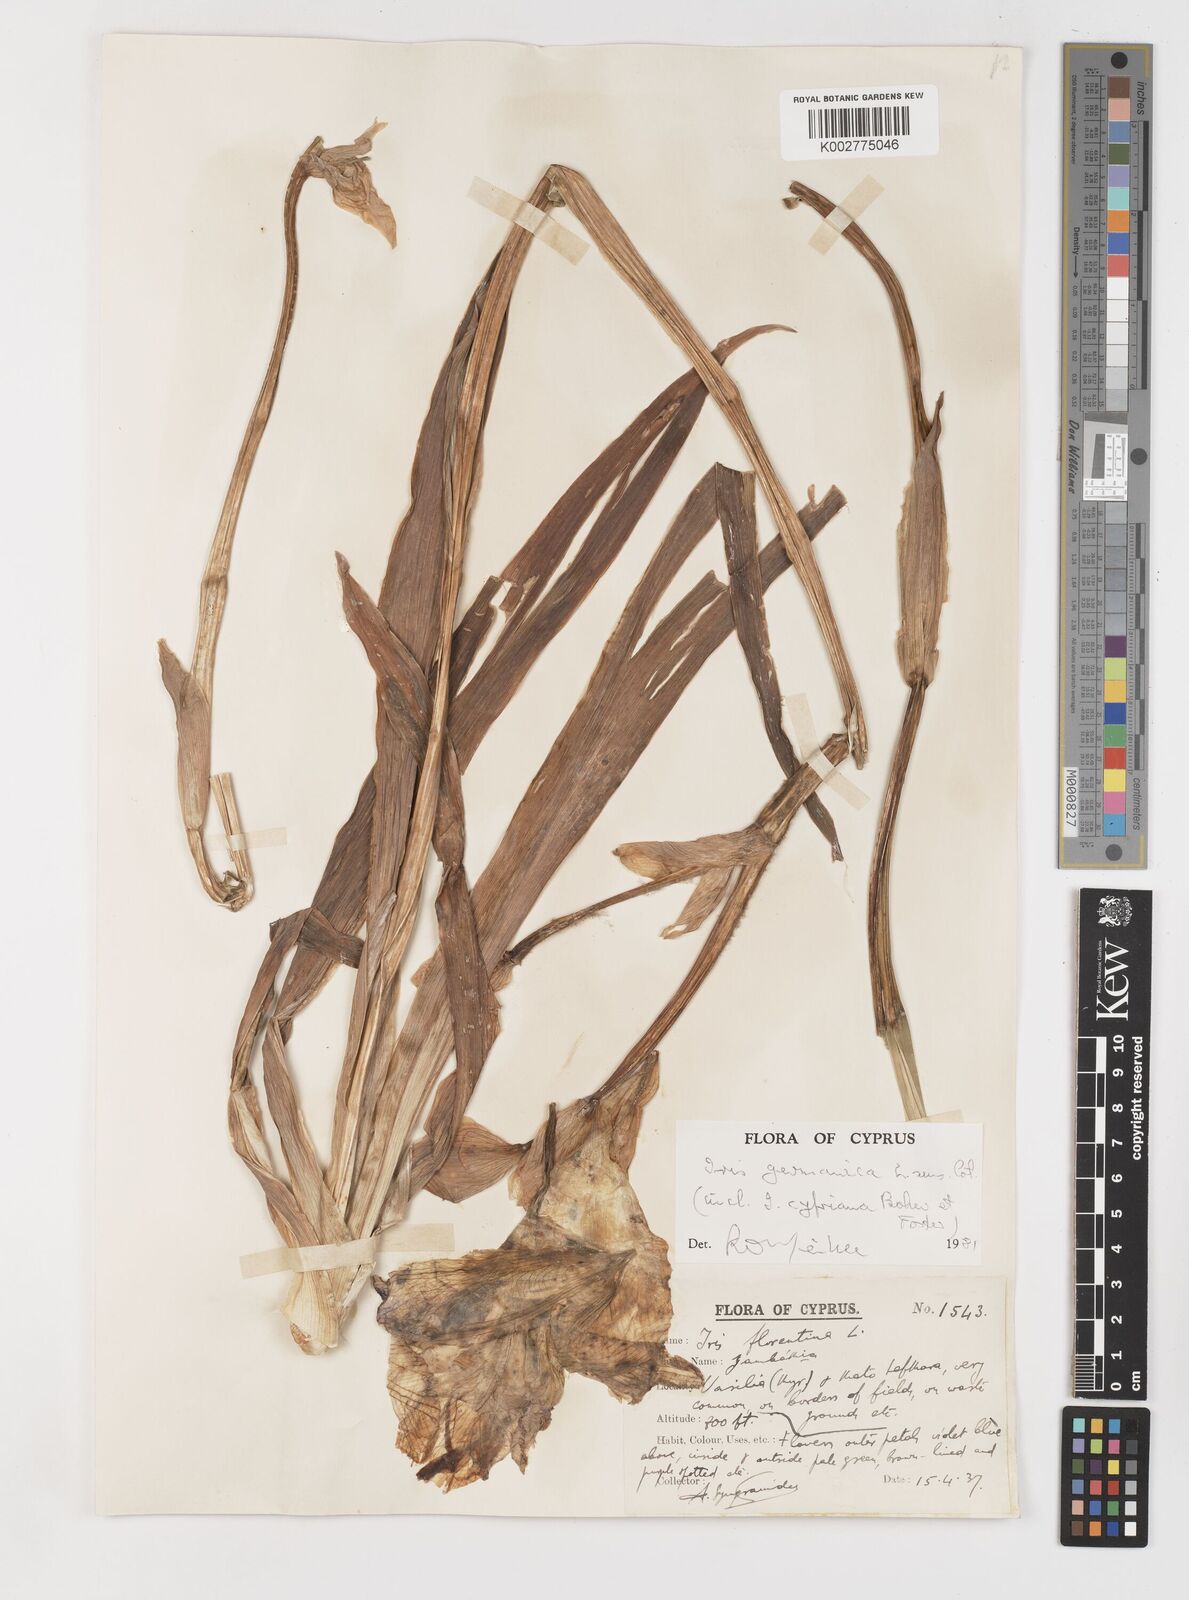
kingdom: Plantae
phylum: Tracheophyta
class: Liliopsida
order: Asparagales
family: Iridaceae
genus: Iris
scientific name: Iris germanica
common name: German iris
